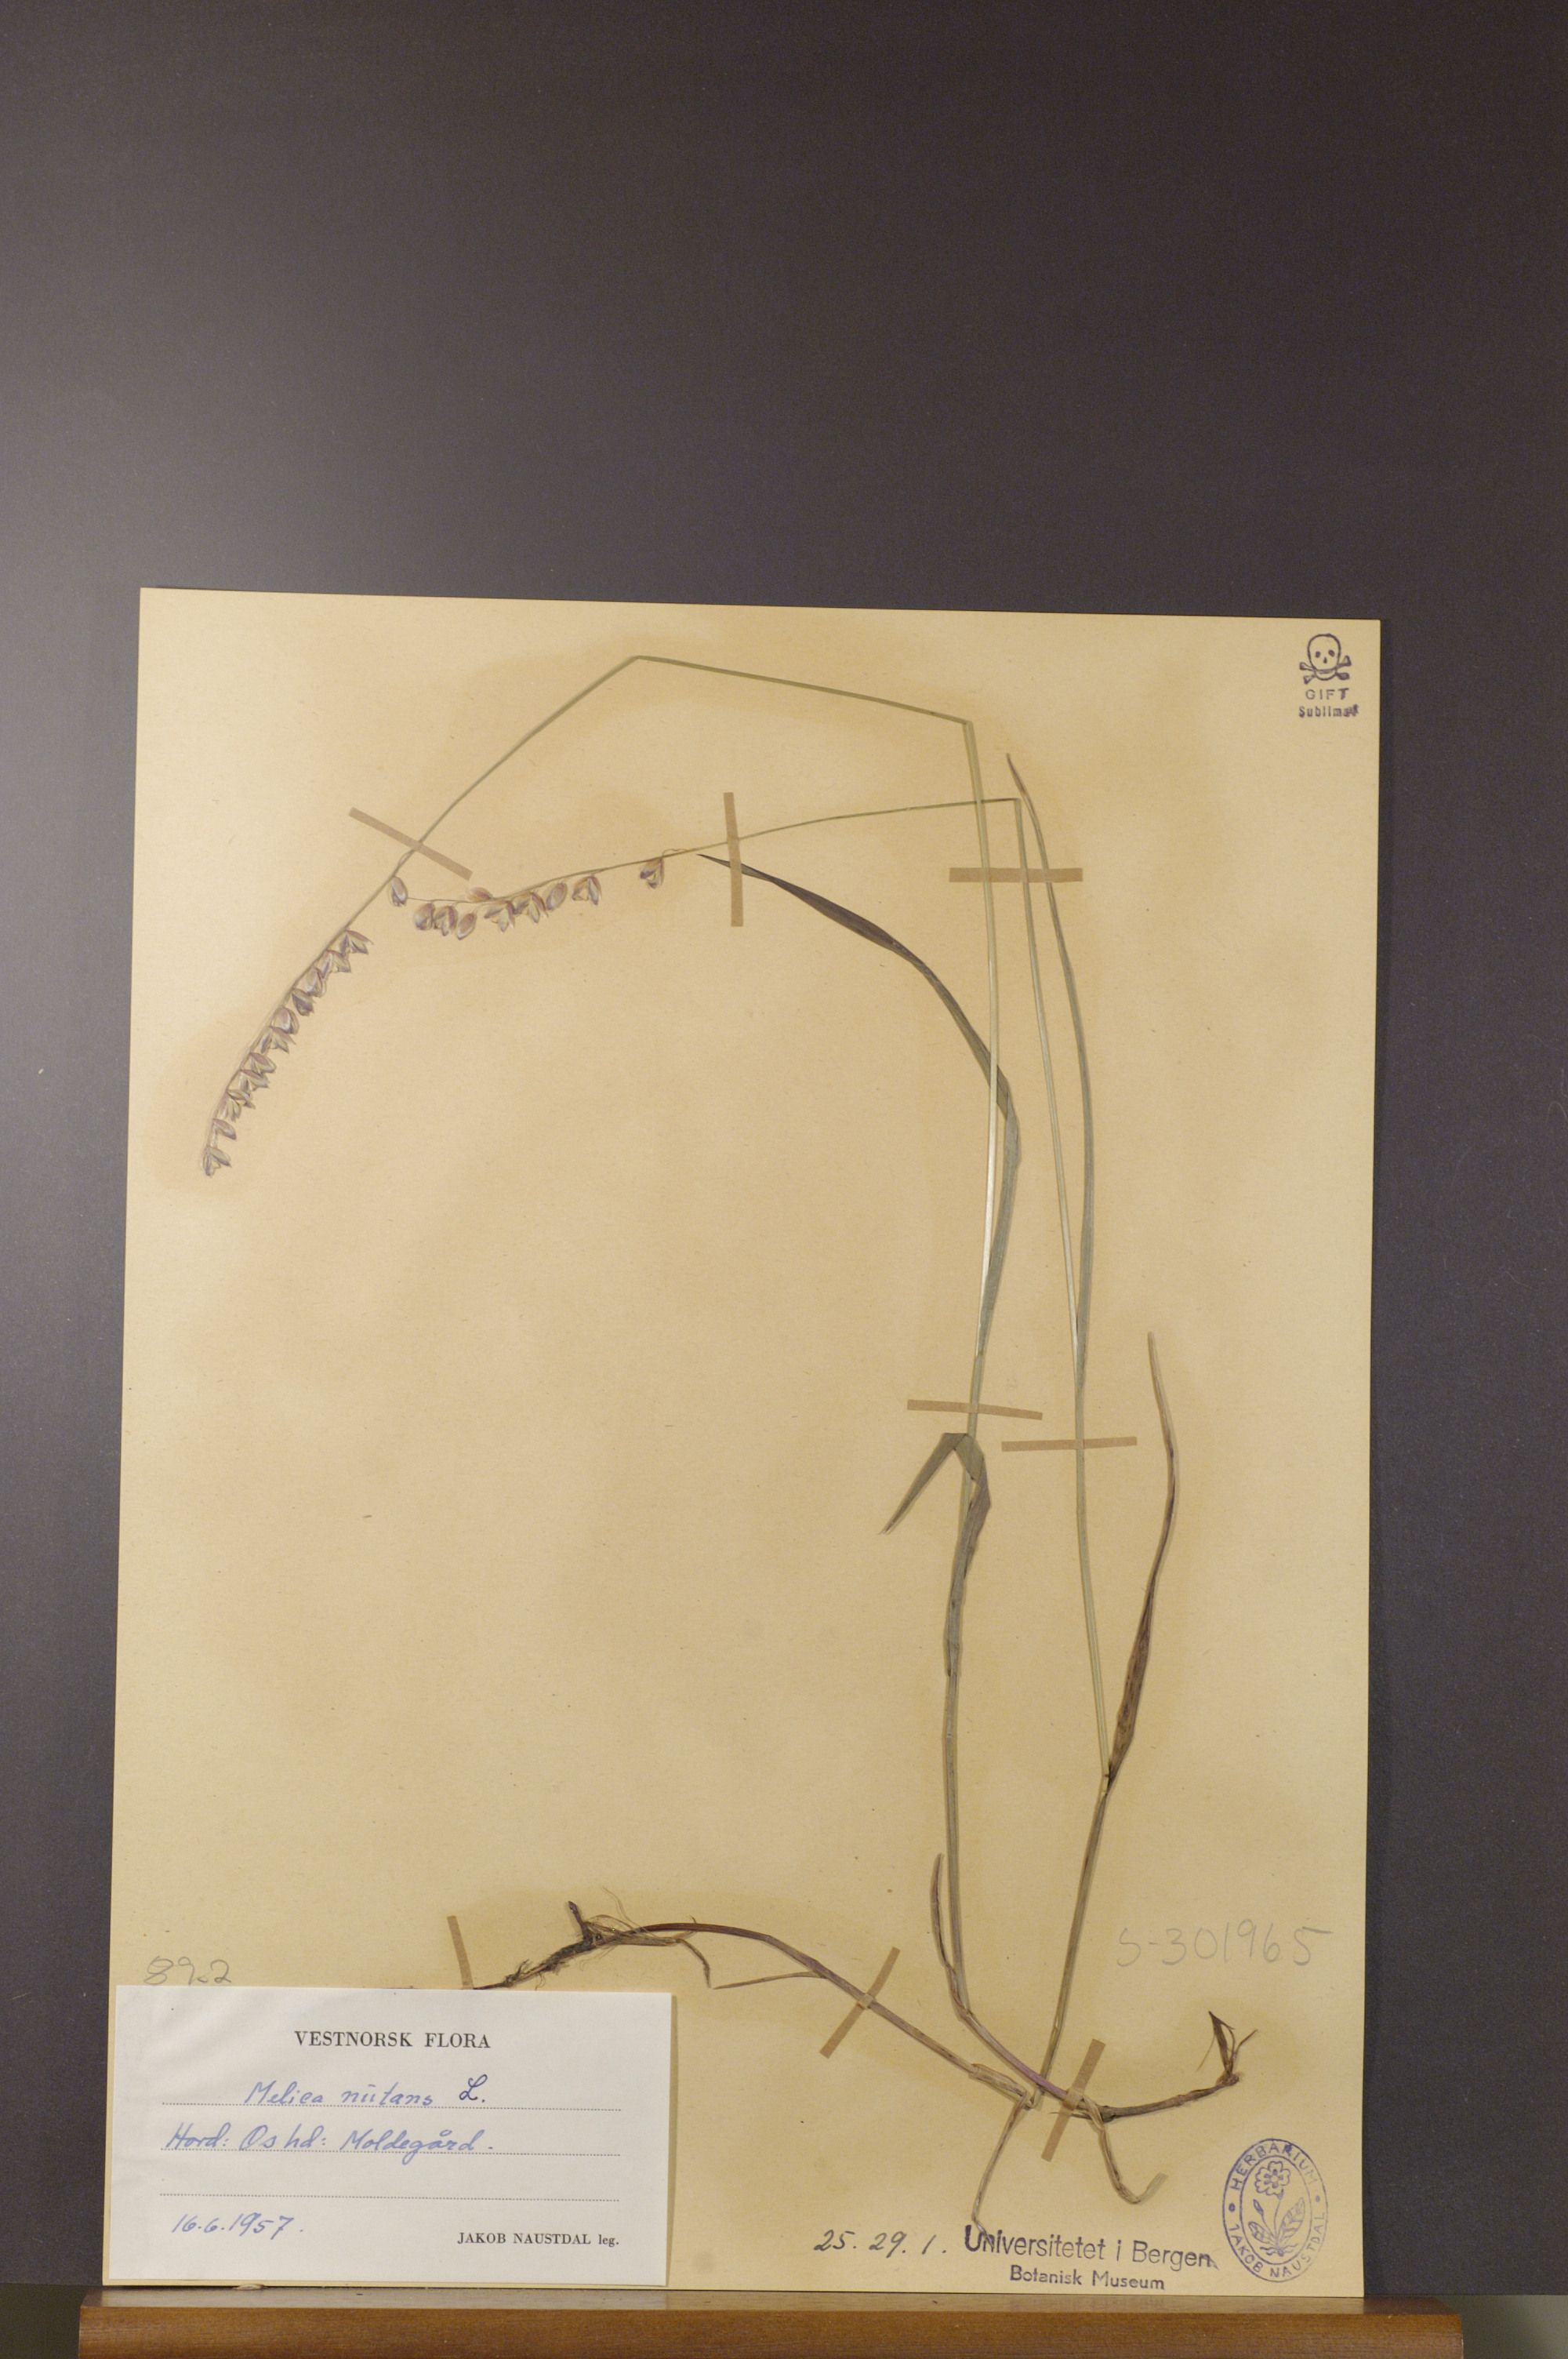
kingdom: Plantae
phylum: Tracheophyta
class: Liliopsida
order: Poales
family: Poaceae
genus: Melica
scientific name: Melica nutans
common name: Mountain melick
